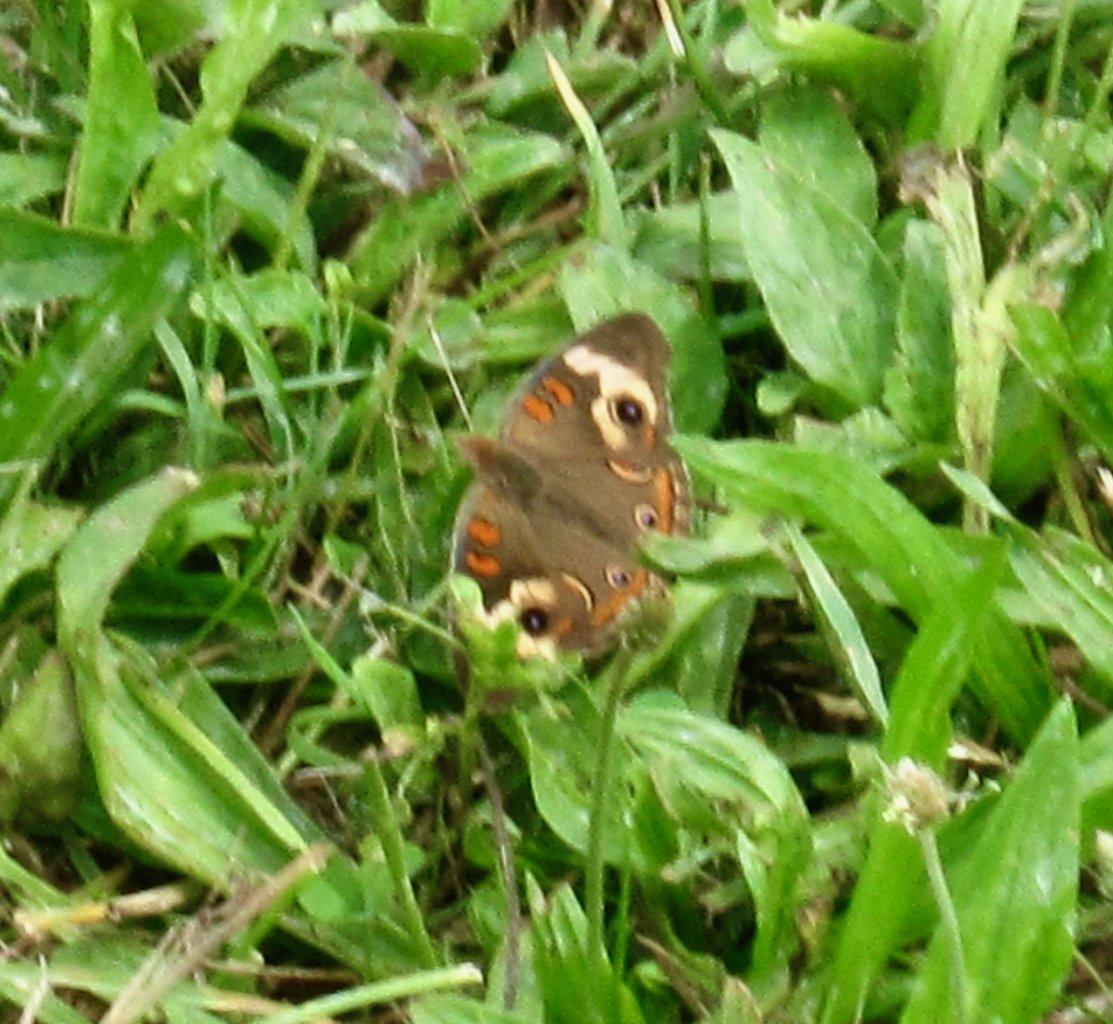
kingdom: Animalia
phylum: Arthropoda
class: Insecta
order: Lepidoptera
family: Nymphalidae
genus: Junonia
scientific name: Junonia coenia
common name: Common Buckeye
